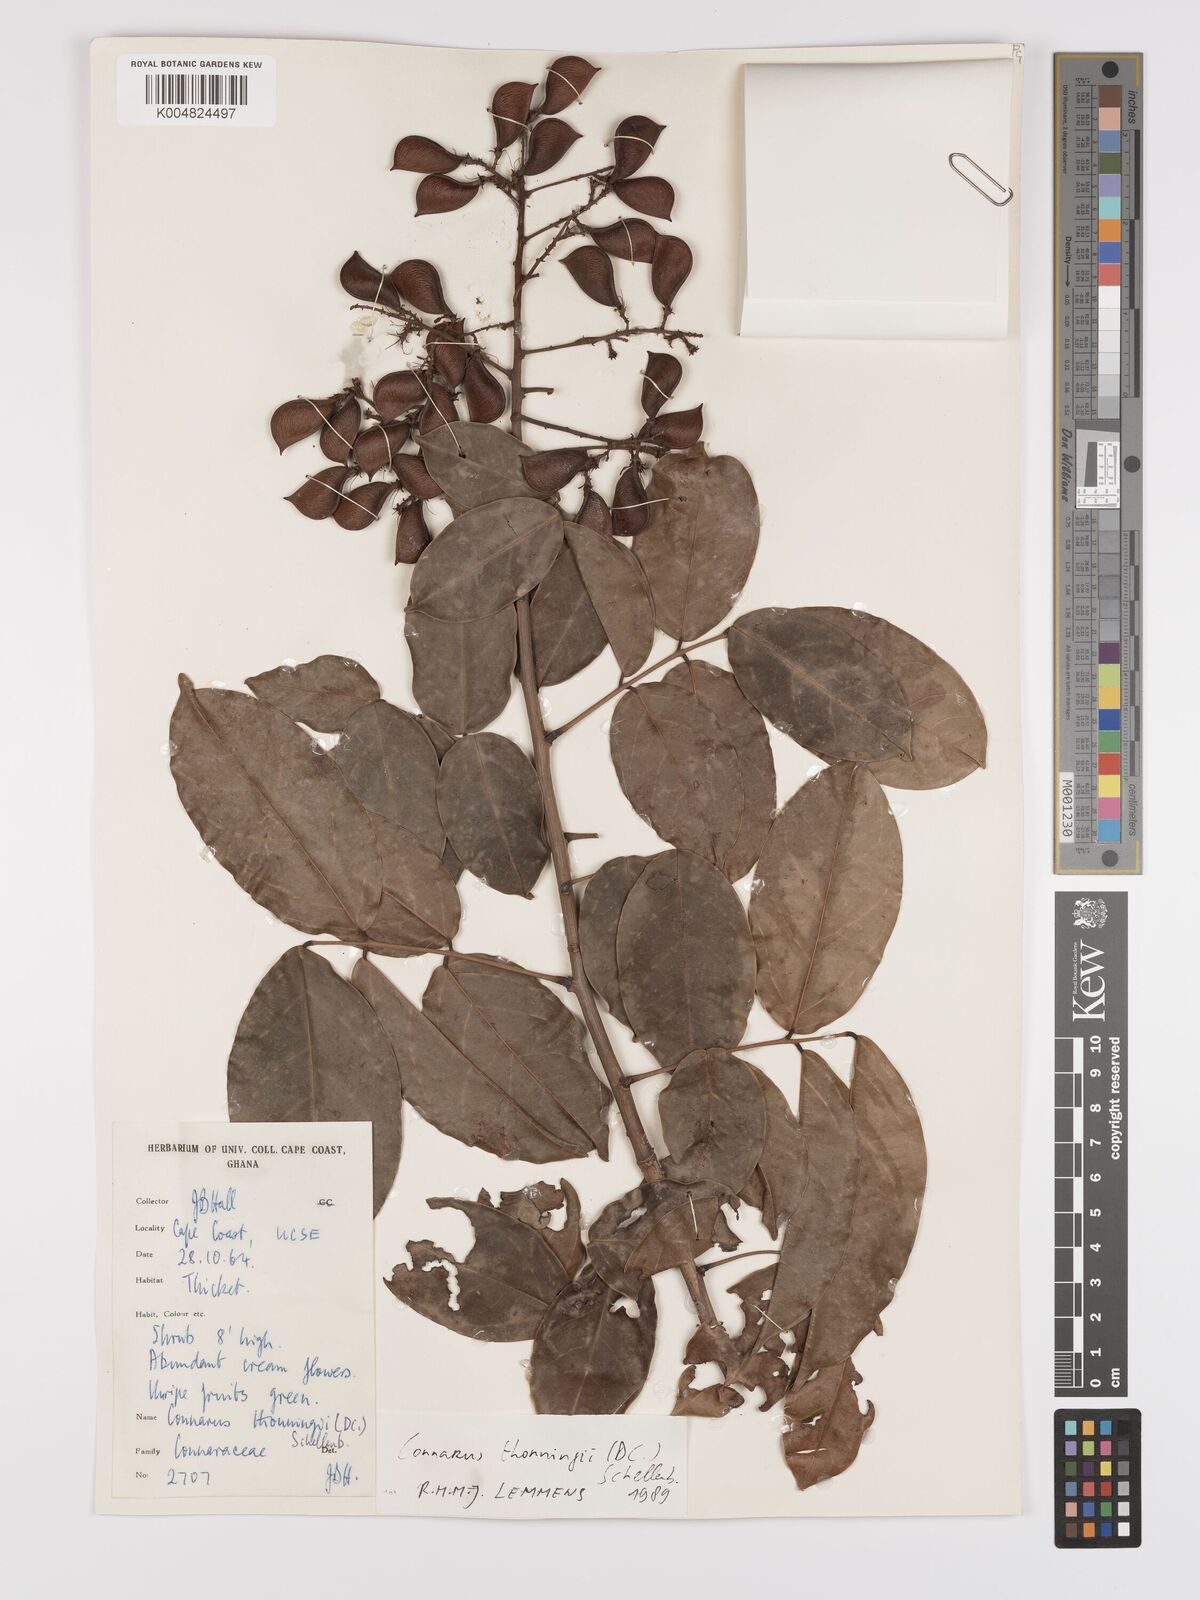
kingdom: Plantae
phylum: Tracheophyta
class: Magnoliopsida
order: Oxalidales
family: Connaraceae
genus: Connarus
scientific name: Connarus thonningii
